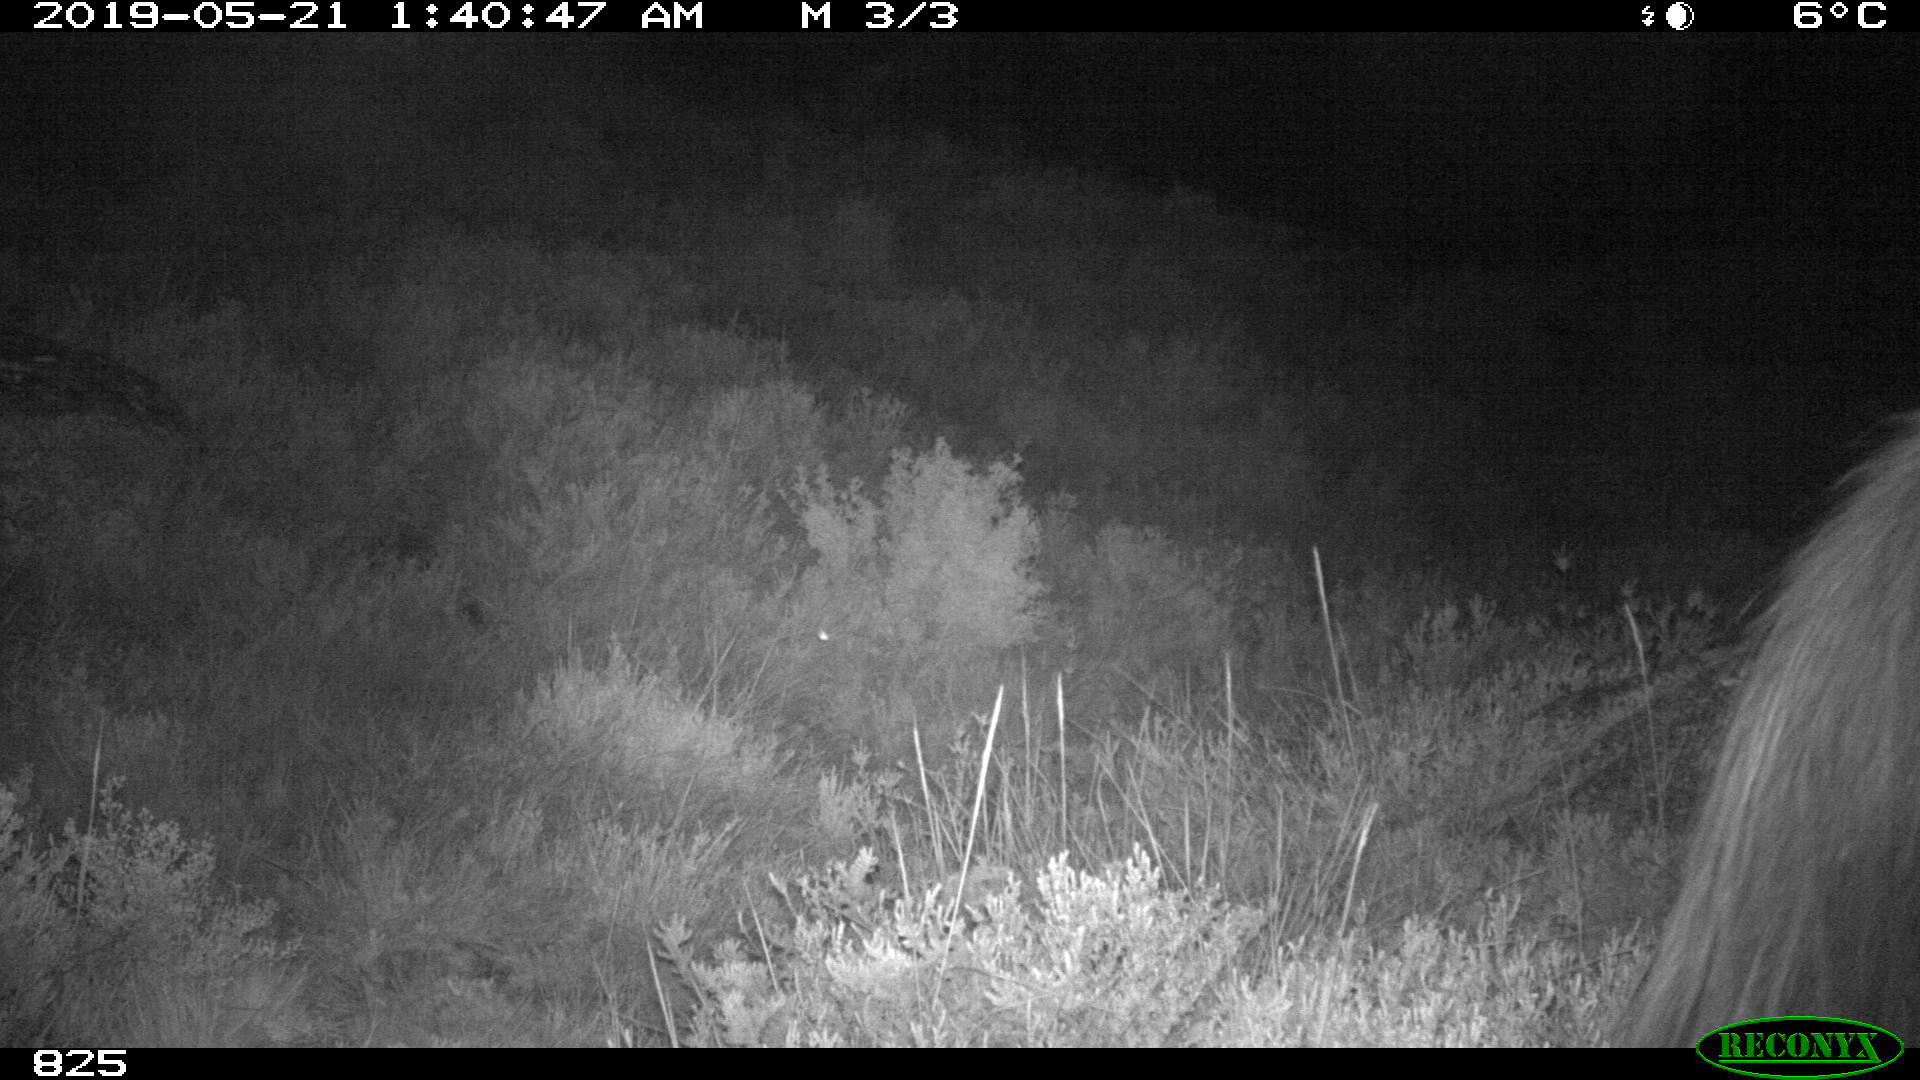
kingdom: Animalia
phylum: Chordata
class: Mammalia
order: Perissodactyla
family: Equidae
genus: Equus
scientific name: Equus caballus
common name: Horse
